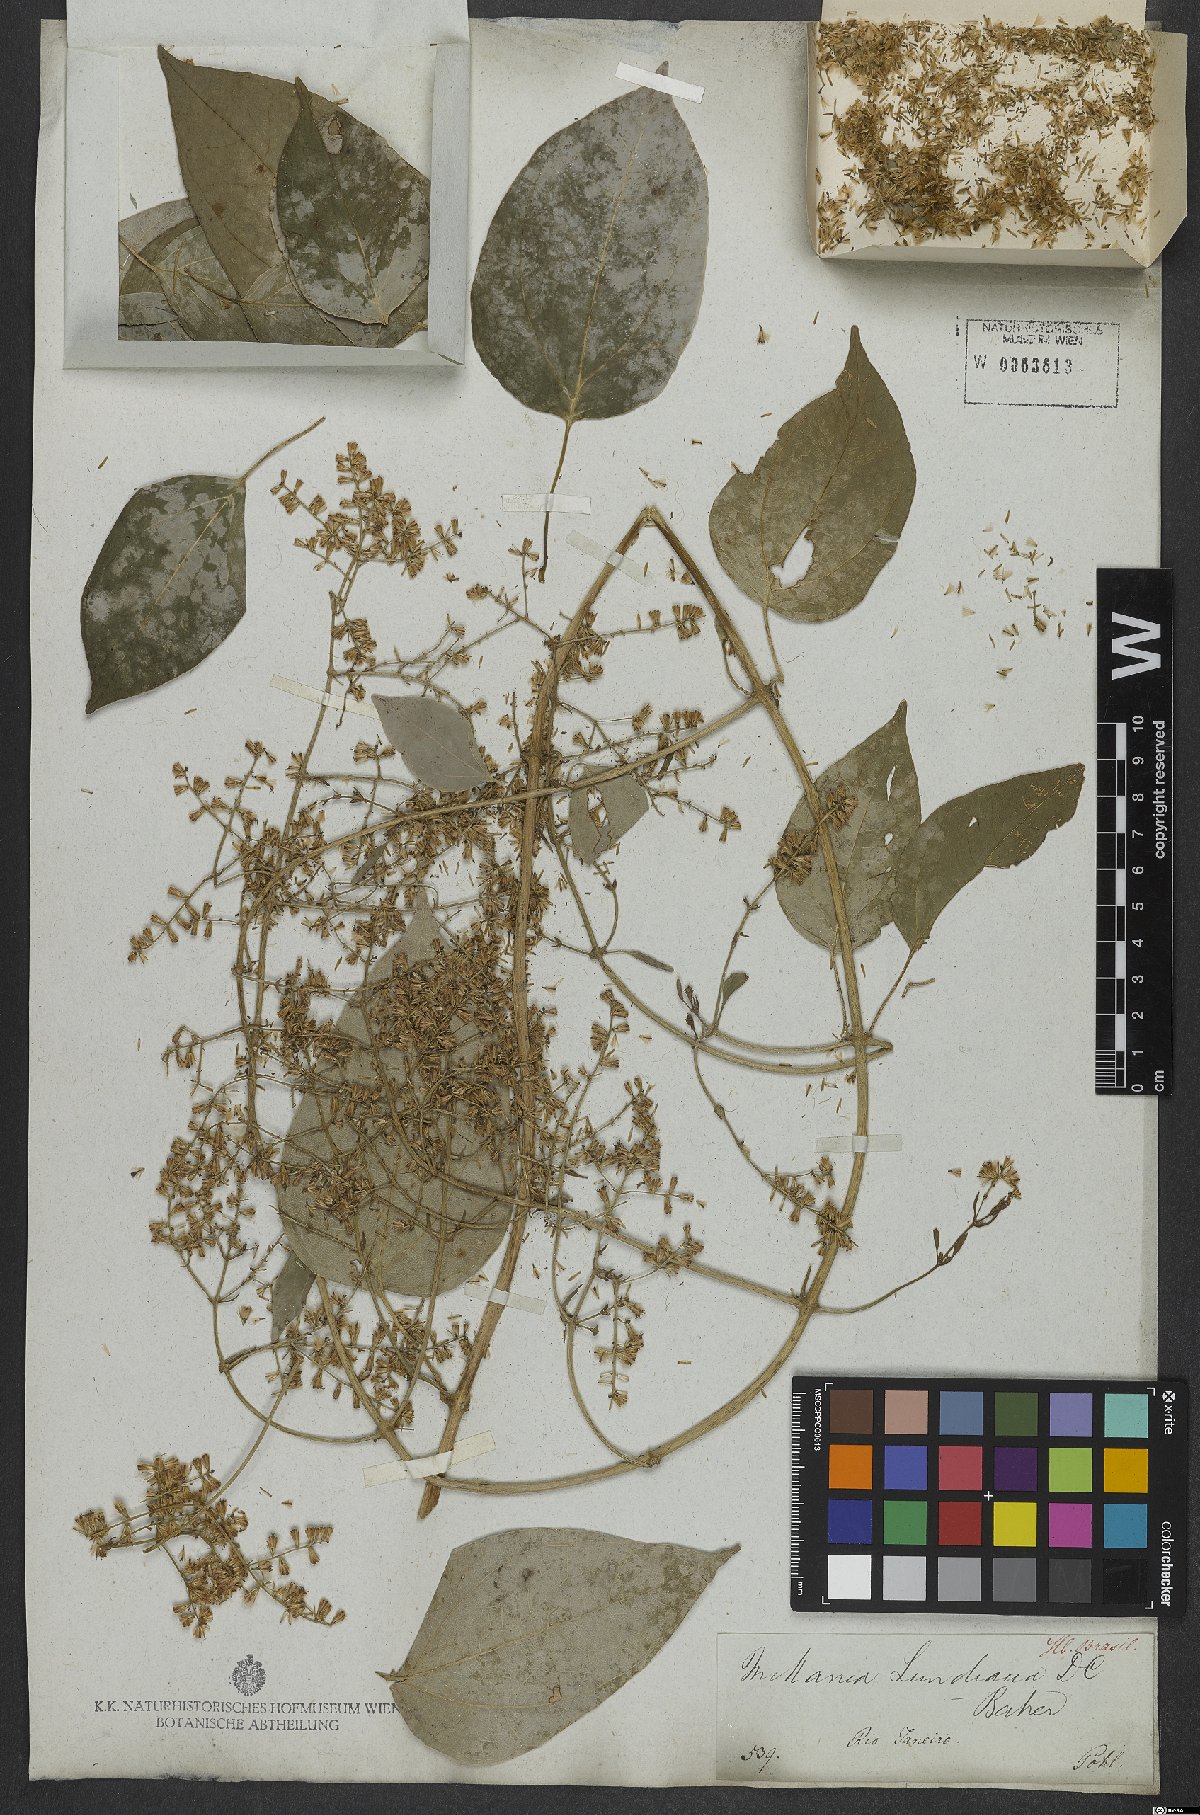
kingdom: Plantae
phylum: Tracheophyta
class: Magnoliopsida
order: Asterales
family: Asteraceae
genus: Mikania
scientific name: Mikania lundiana
